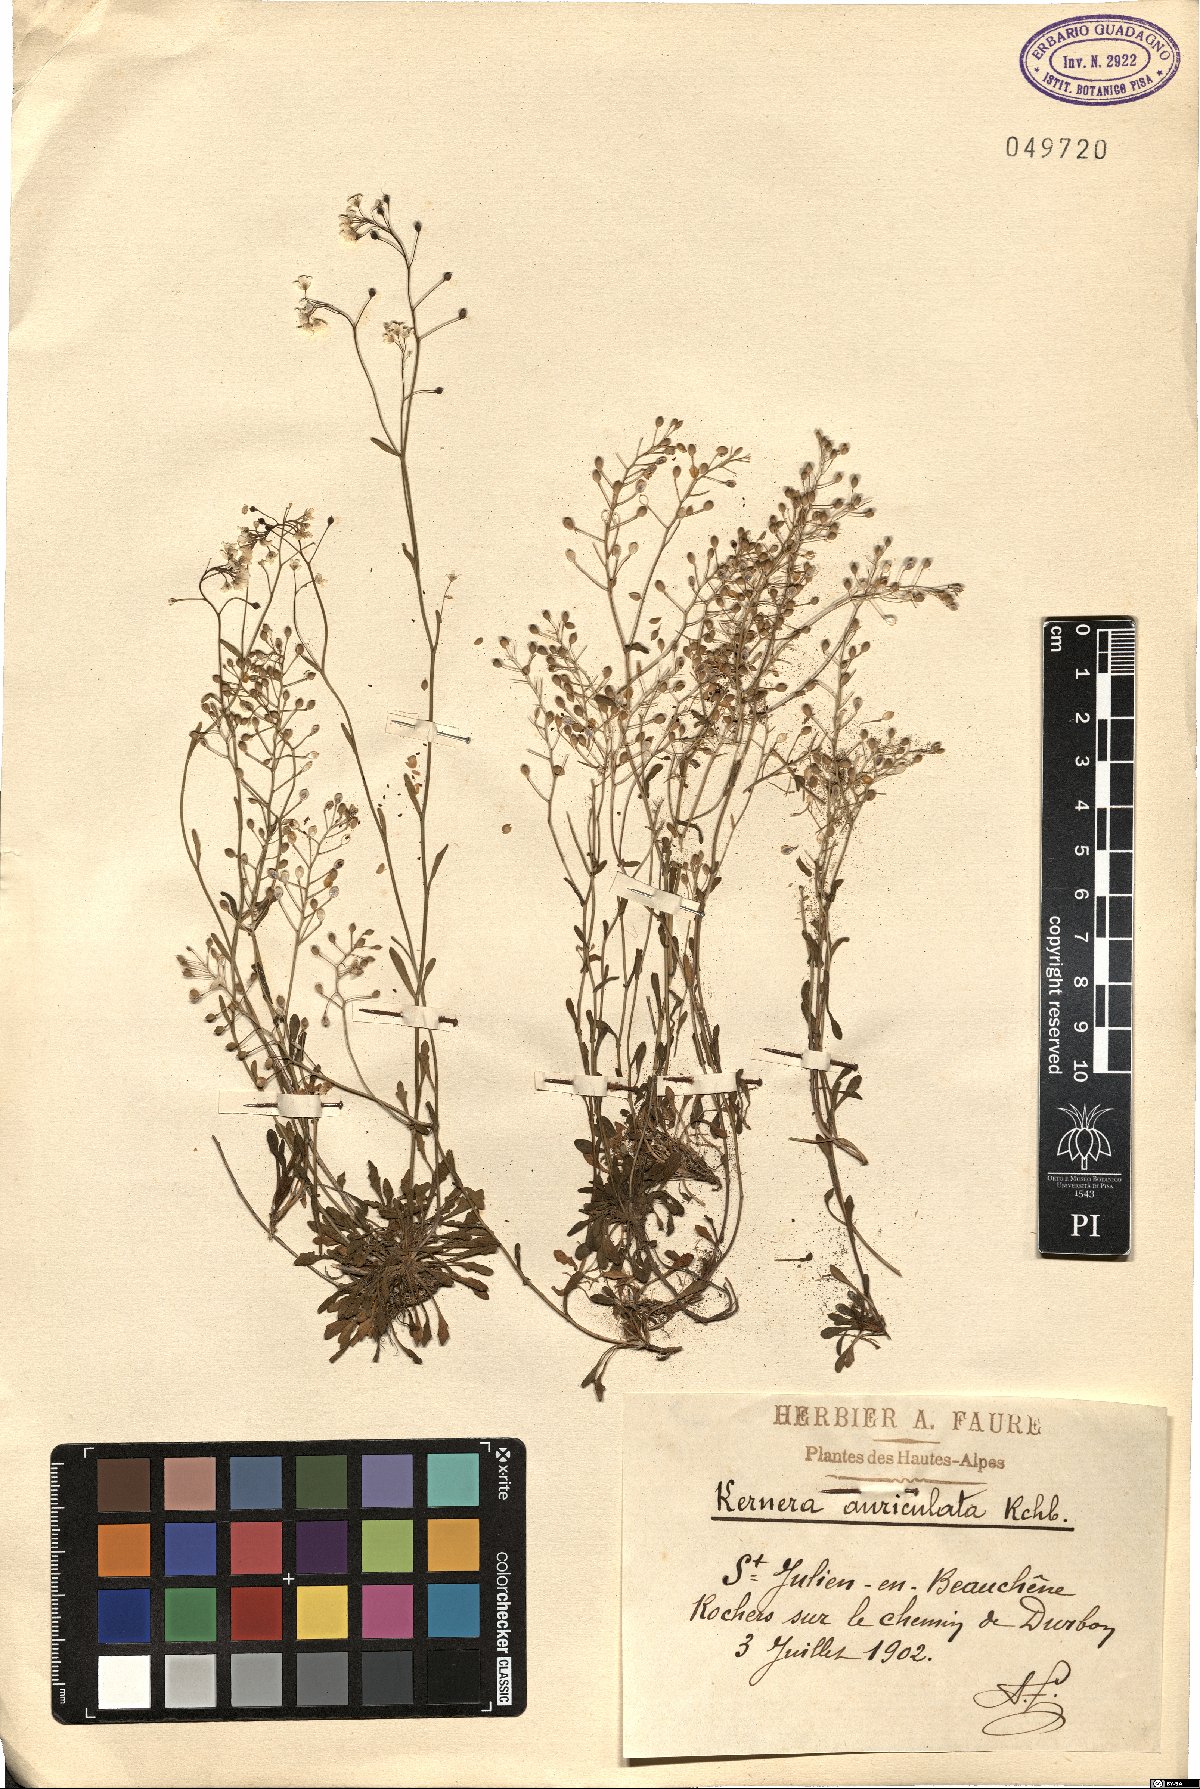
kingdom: Plantae
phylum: Tracheophyta
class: Magnoliopsida
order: Brassicales
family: Brassicaceae
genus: Calepina
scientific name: Calepina irregularis
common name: White ballmustard
